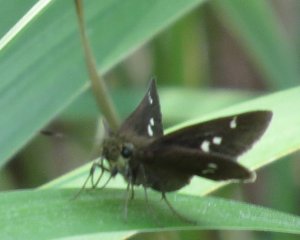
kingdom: Animalia
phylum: Arthropoda
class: Insecta
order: Lepidoptera
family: Hesperiidae
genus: Oligoria
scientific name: Oligoria maculata
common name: Twin-spot Skipper
